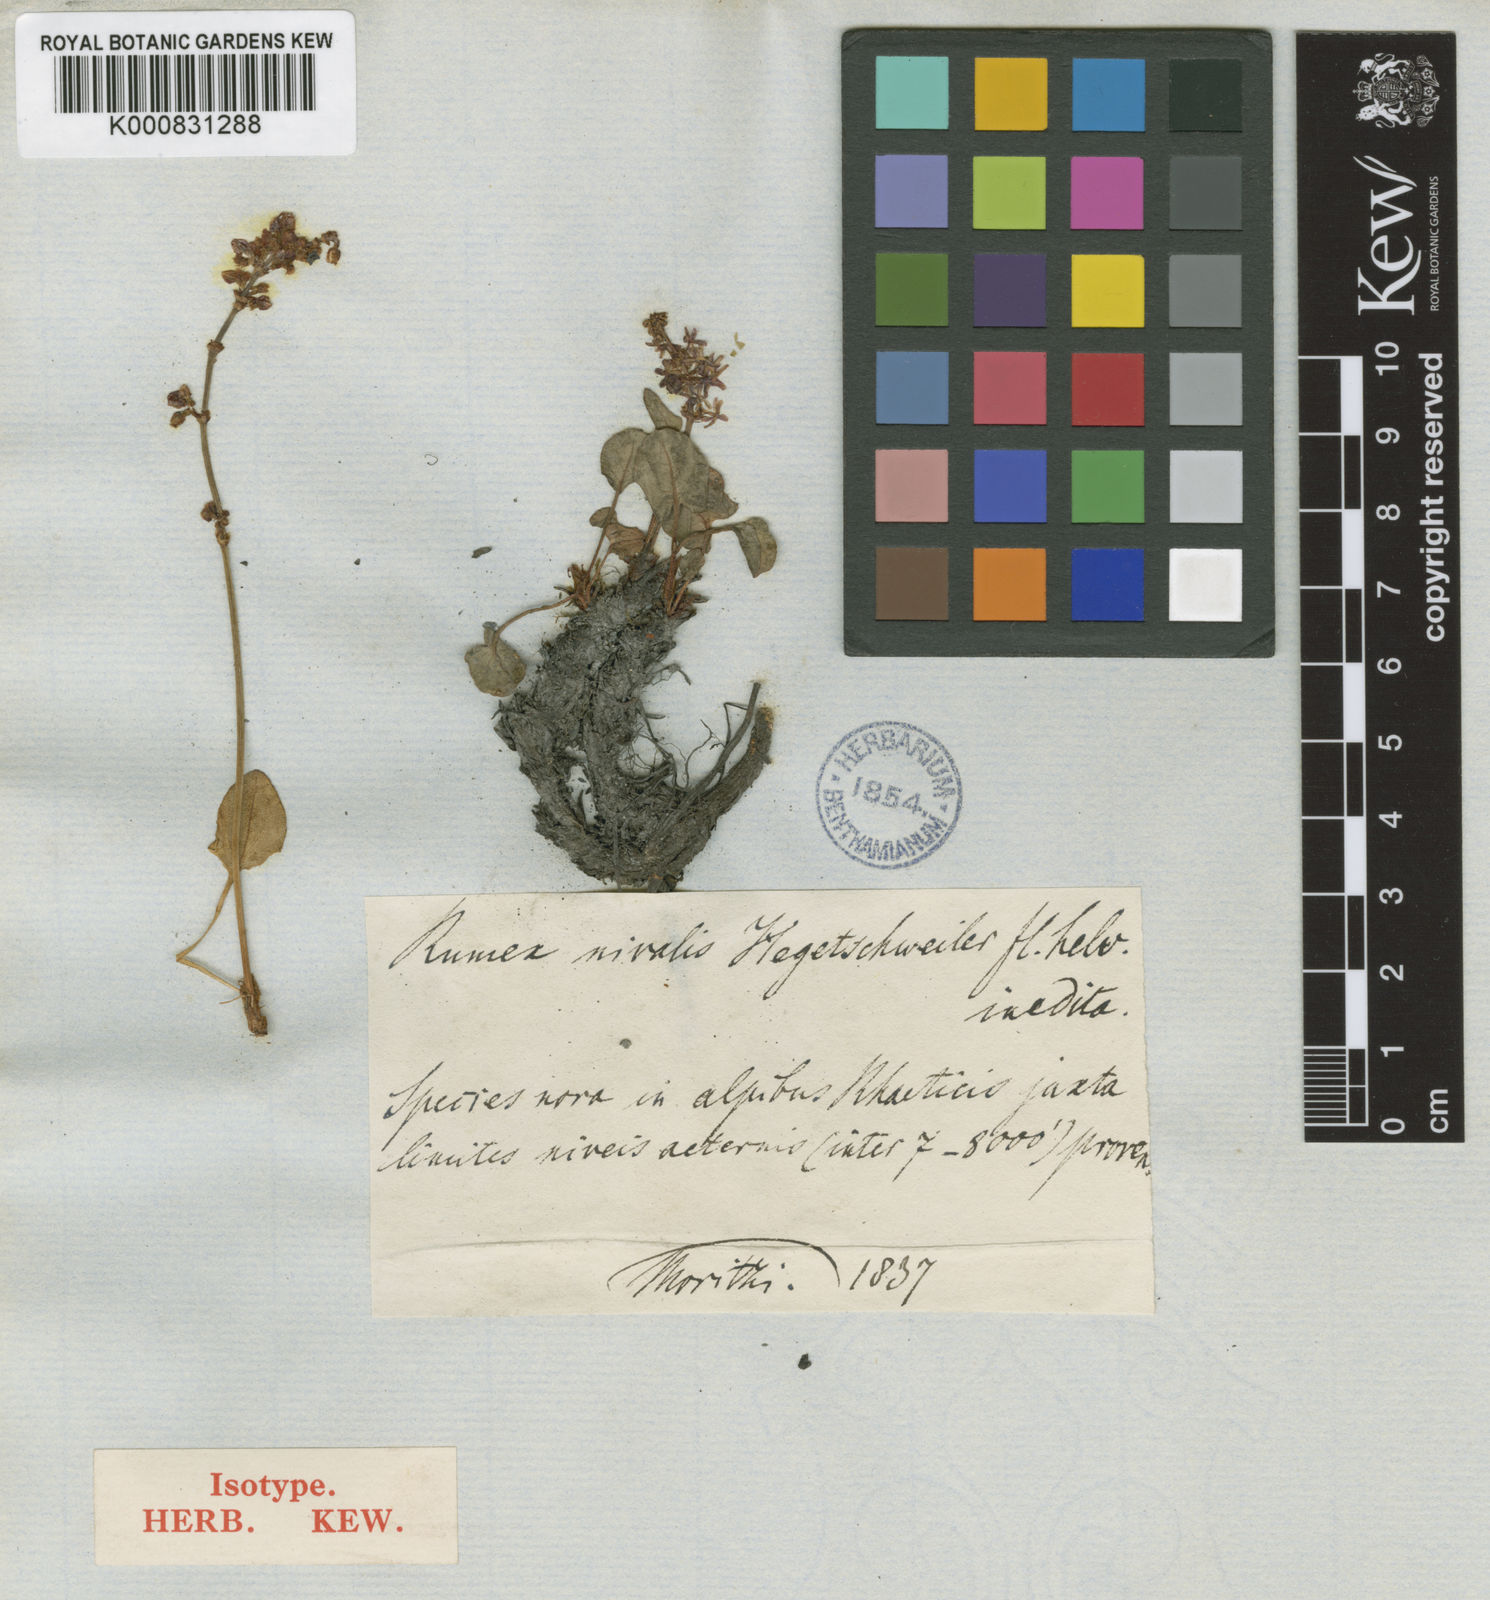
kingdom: Plantae
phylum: Tracheophyta
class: Magnoliopsida
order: Caryophyllales
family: Polygonaceae
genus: Rumex
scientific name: Rumex nivalis
